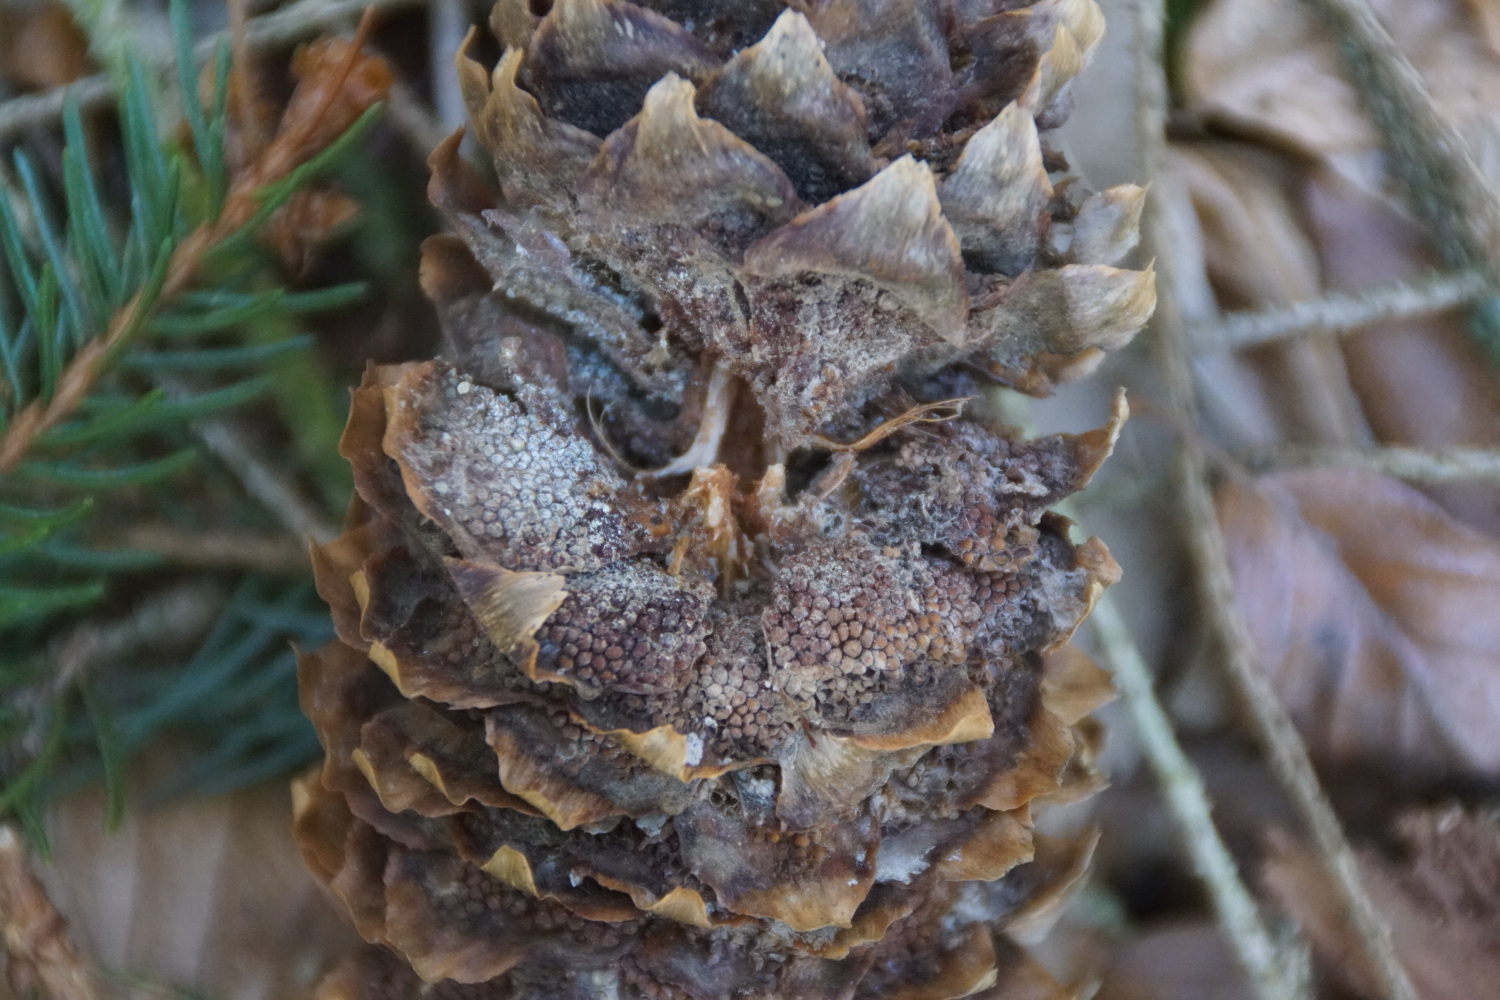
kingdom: Fungi
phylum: Basidiomycota
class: Pucciniomycetes
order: Pucciniales
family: Pucciniastraceae
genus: Thekopsora
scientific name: Thekopsora areolata
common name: grankogle-nålerust
